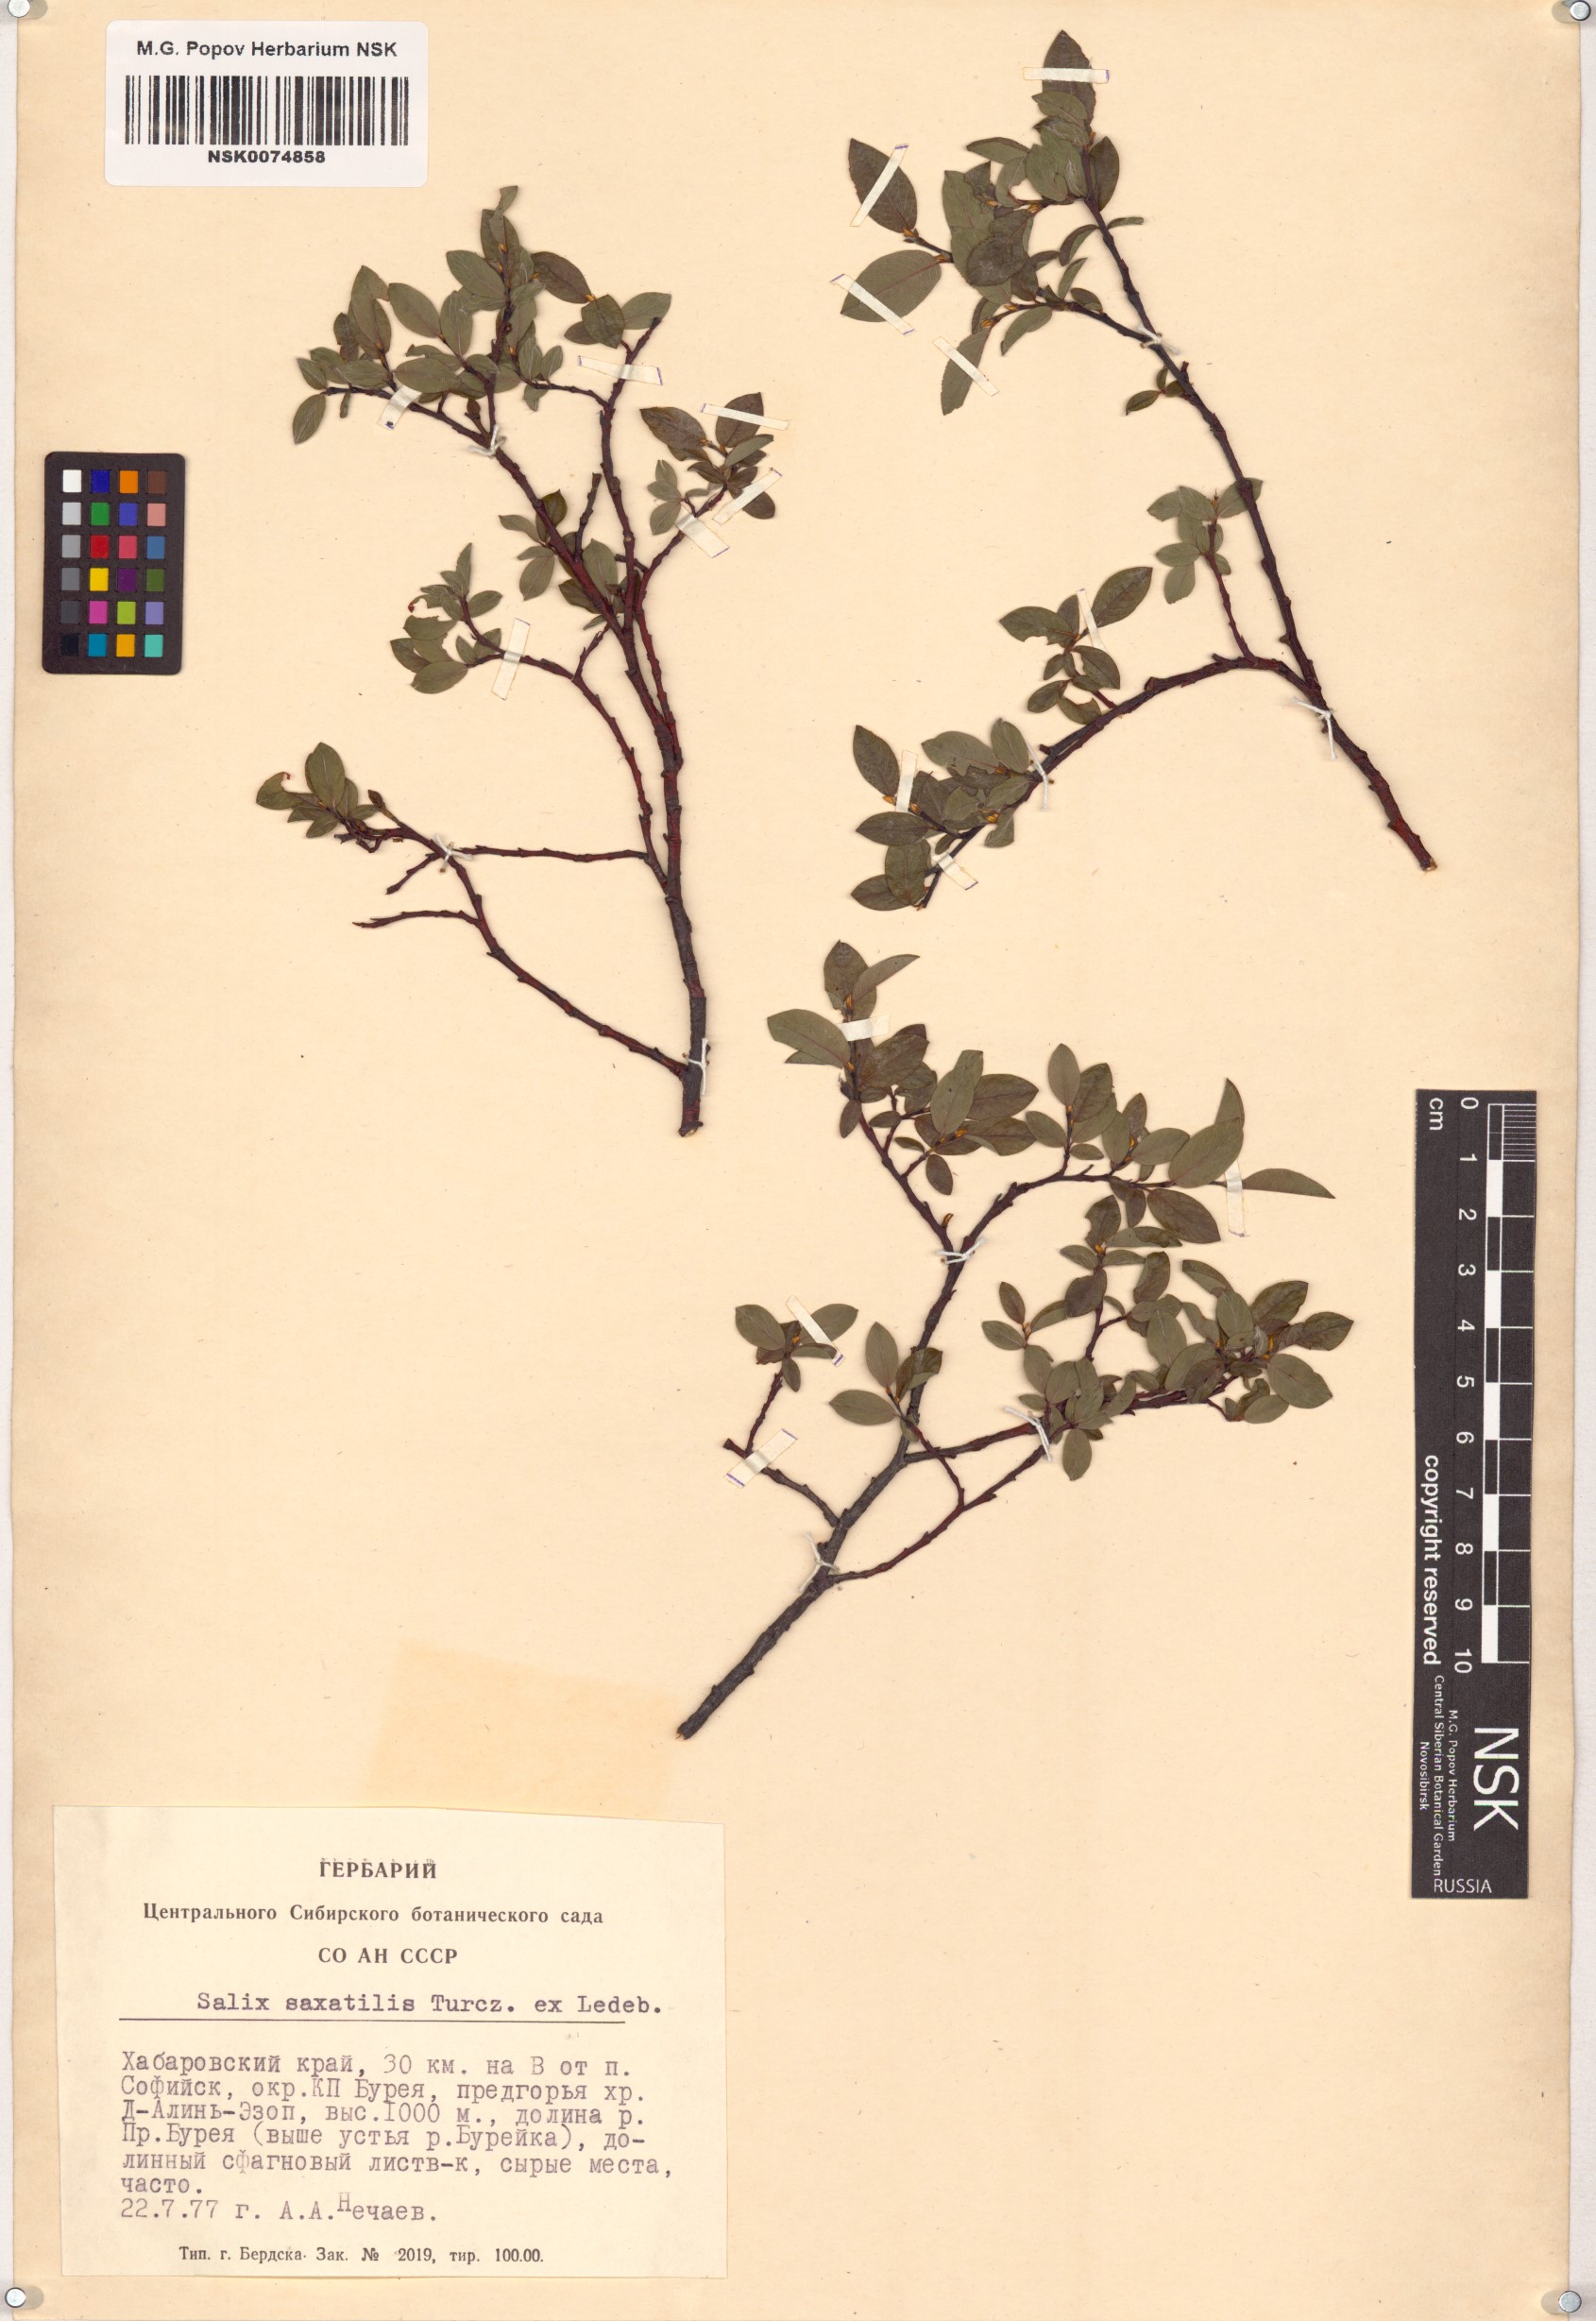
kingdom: Plantae
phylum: Tracheophyta
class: Magnoliopsida
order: Malpighiales
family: Salicaceae
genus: Salix
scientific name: Salix saxatilis
